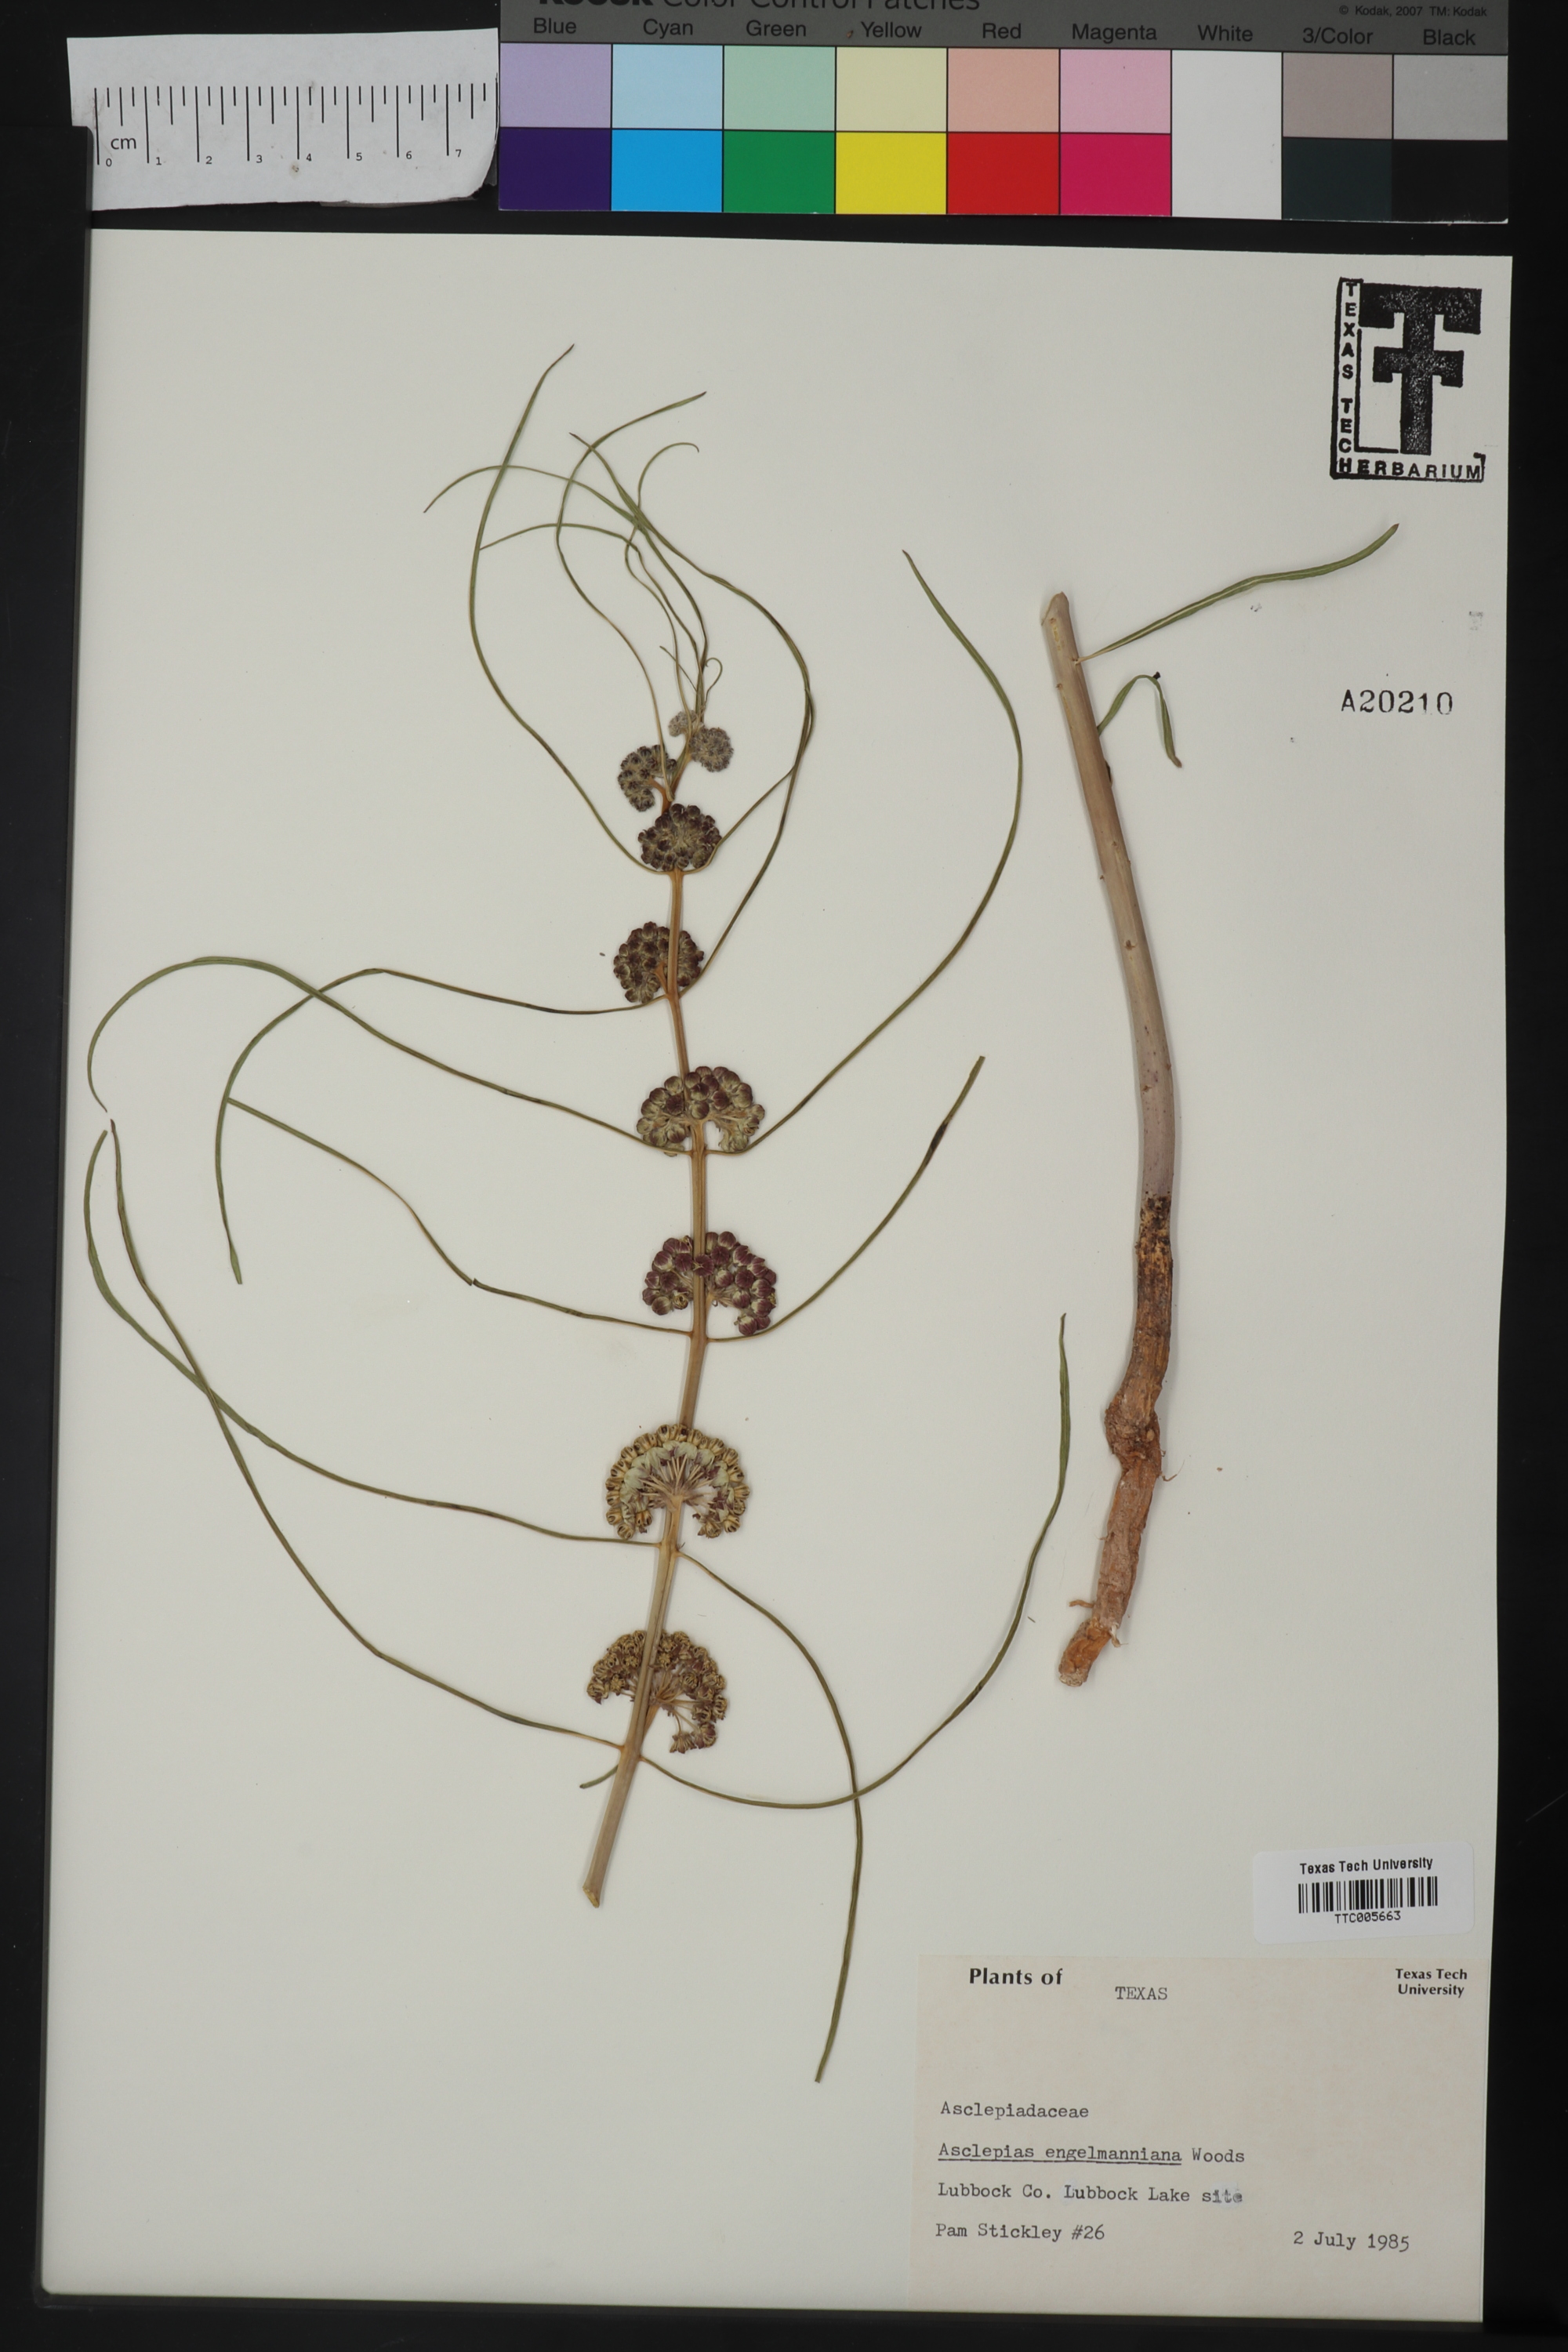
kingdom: Plantae
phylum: Tracheophyta
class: Magnoliopsida
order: Gentianales
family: Apocynaceae
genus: Asclepias
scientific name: Asclepias engelmanniana
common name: Engelmann's milkweed
